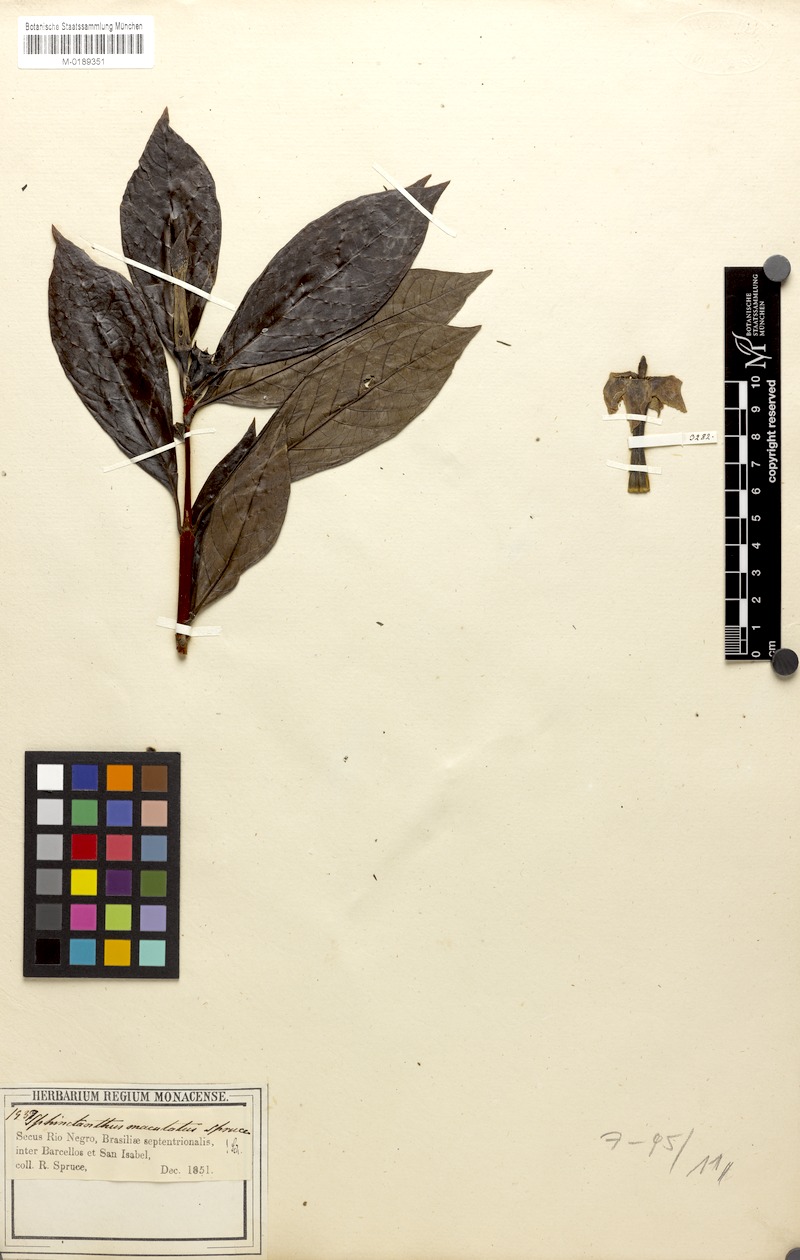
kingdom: Plantae
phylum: Tracheophyta
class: Magnoliopsida
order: Gentianales
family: Rubiaceae
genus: Sphinctanthus
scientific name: Sphinctanthus maculatus
